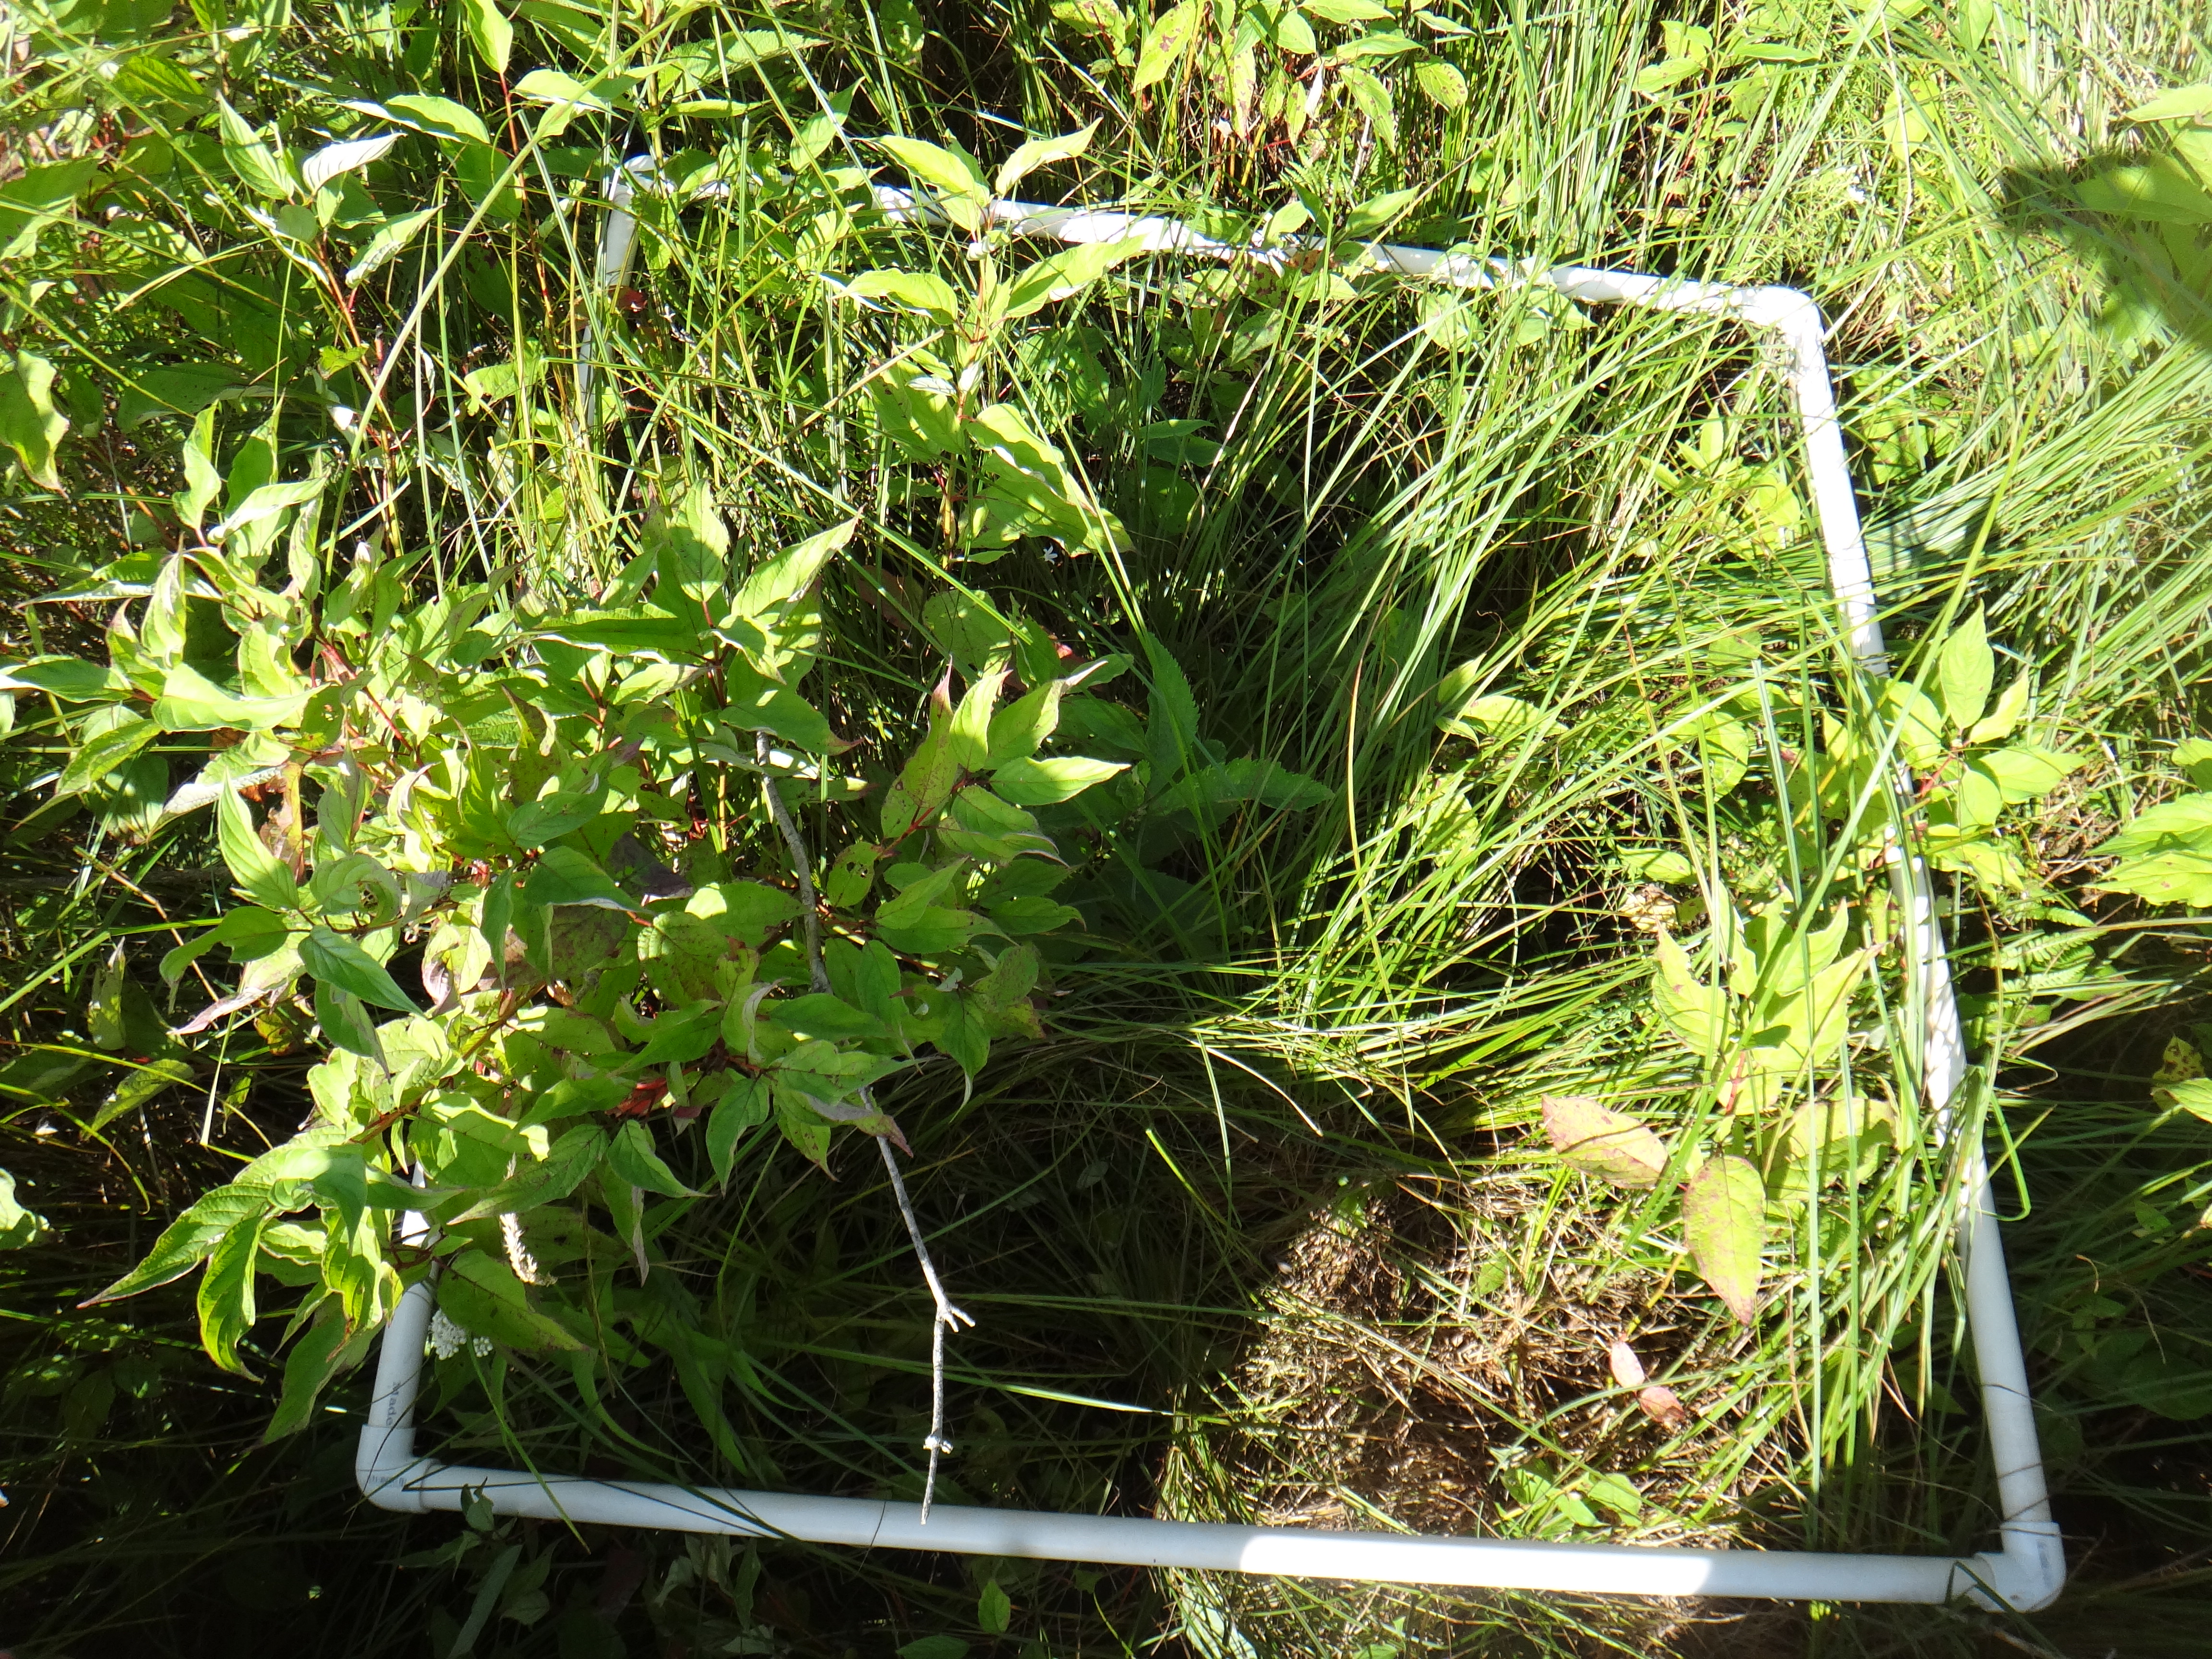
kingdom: Plantae
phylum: Tracheophyta
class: Magnoliopsida
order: Lamiales
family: Lamiaceae
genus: Pycnanthemum
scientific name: Pycnanthemum virginianum
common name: Virginia mountain-mint
